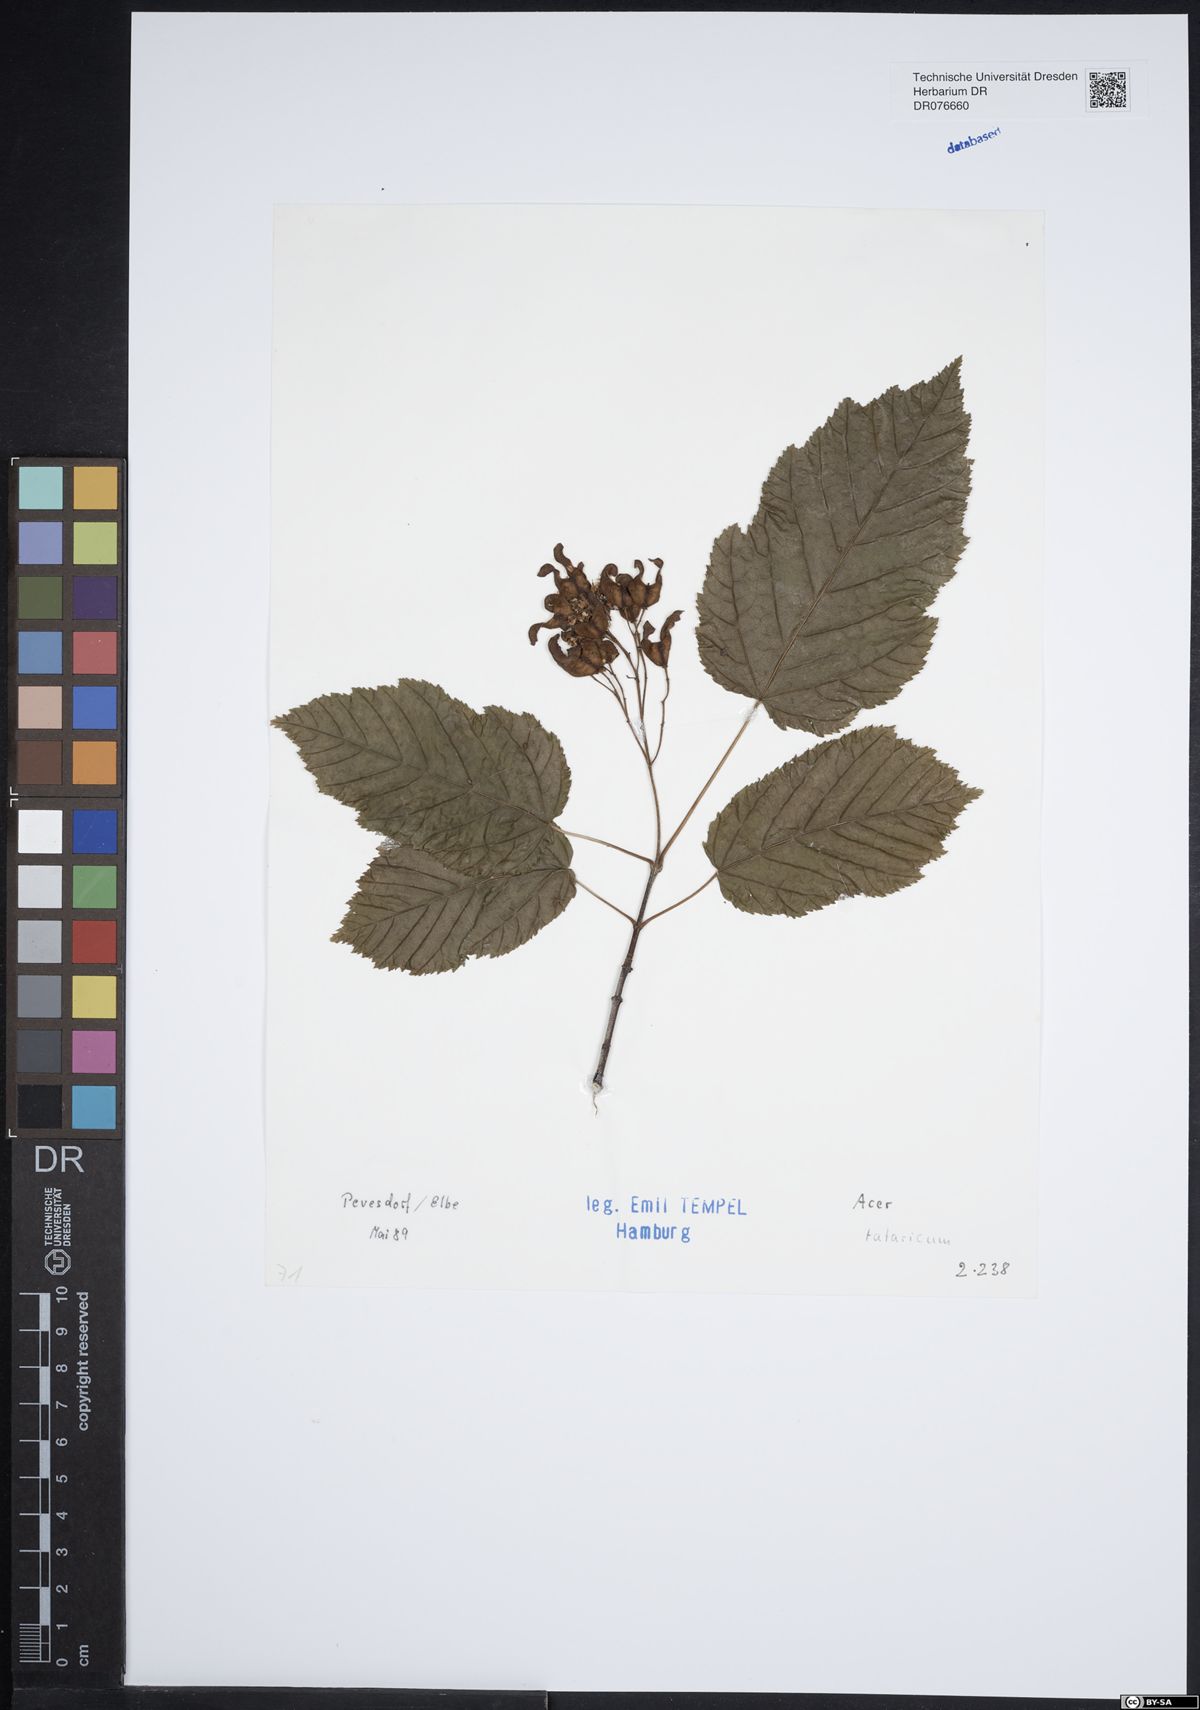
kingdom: Plantae
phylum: Tracheophyta
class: Magnoliopsida
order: Sapindales
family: Sapindaceae
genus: Acer
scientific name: Acer tataricum
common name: Tartar maple
